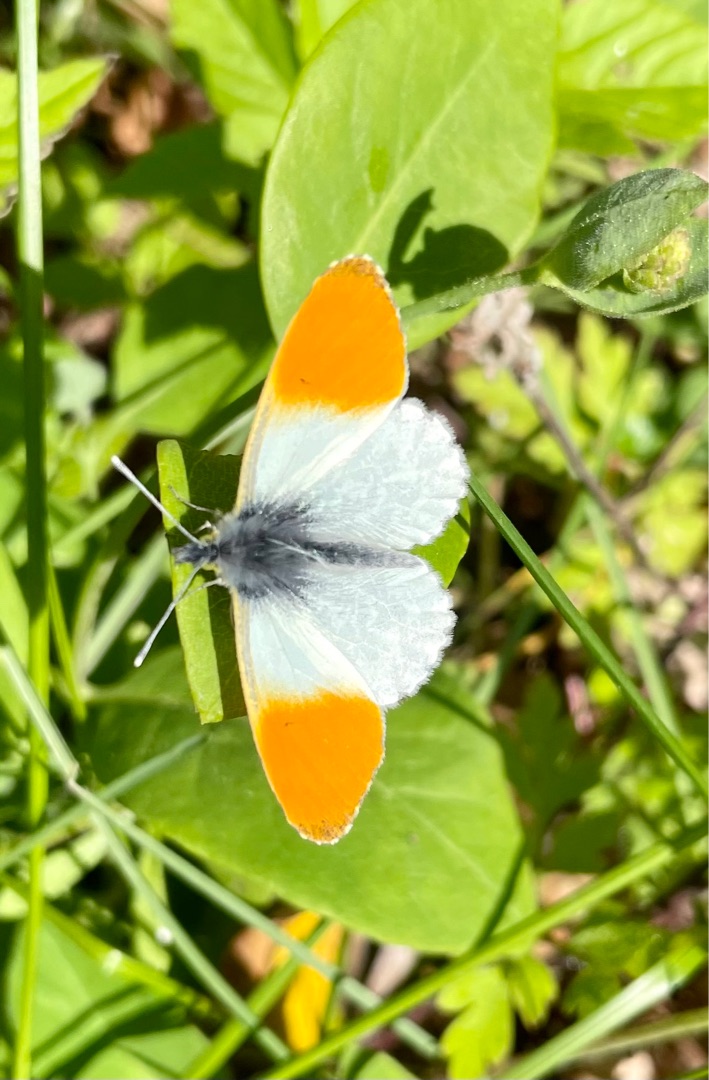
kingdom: Animalia
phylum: Arthropoda
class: Insecta
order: Lepidoptera
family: Pieridae
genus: Anthocharis
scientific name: Anthocharis cardamines
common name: Aurora
